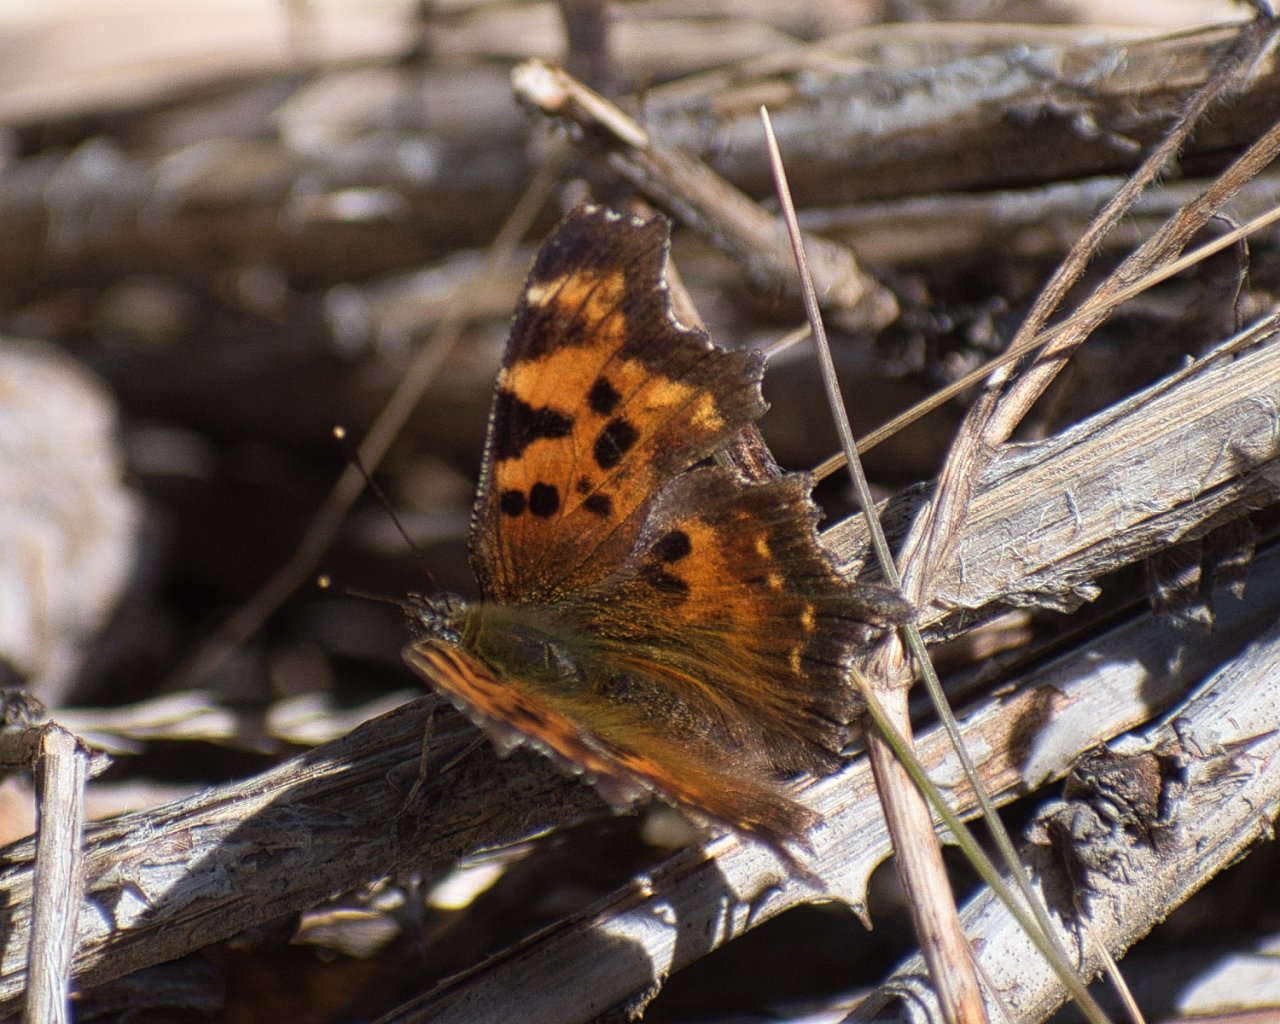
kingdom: Animalia
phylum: Arthropoda
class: Insecta
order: Lepidoptera
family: Nymphalidae
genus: Polygonia
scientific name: Polygonia faunus
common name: Green Comma
